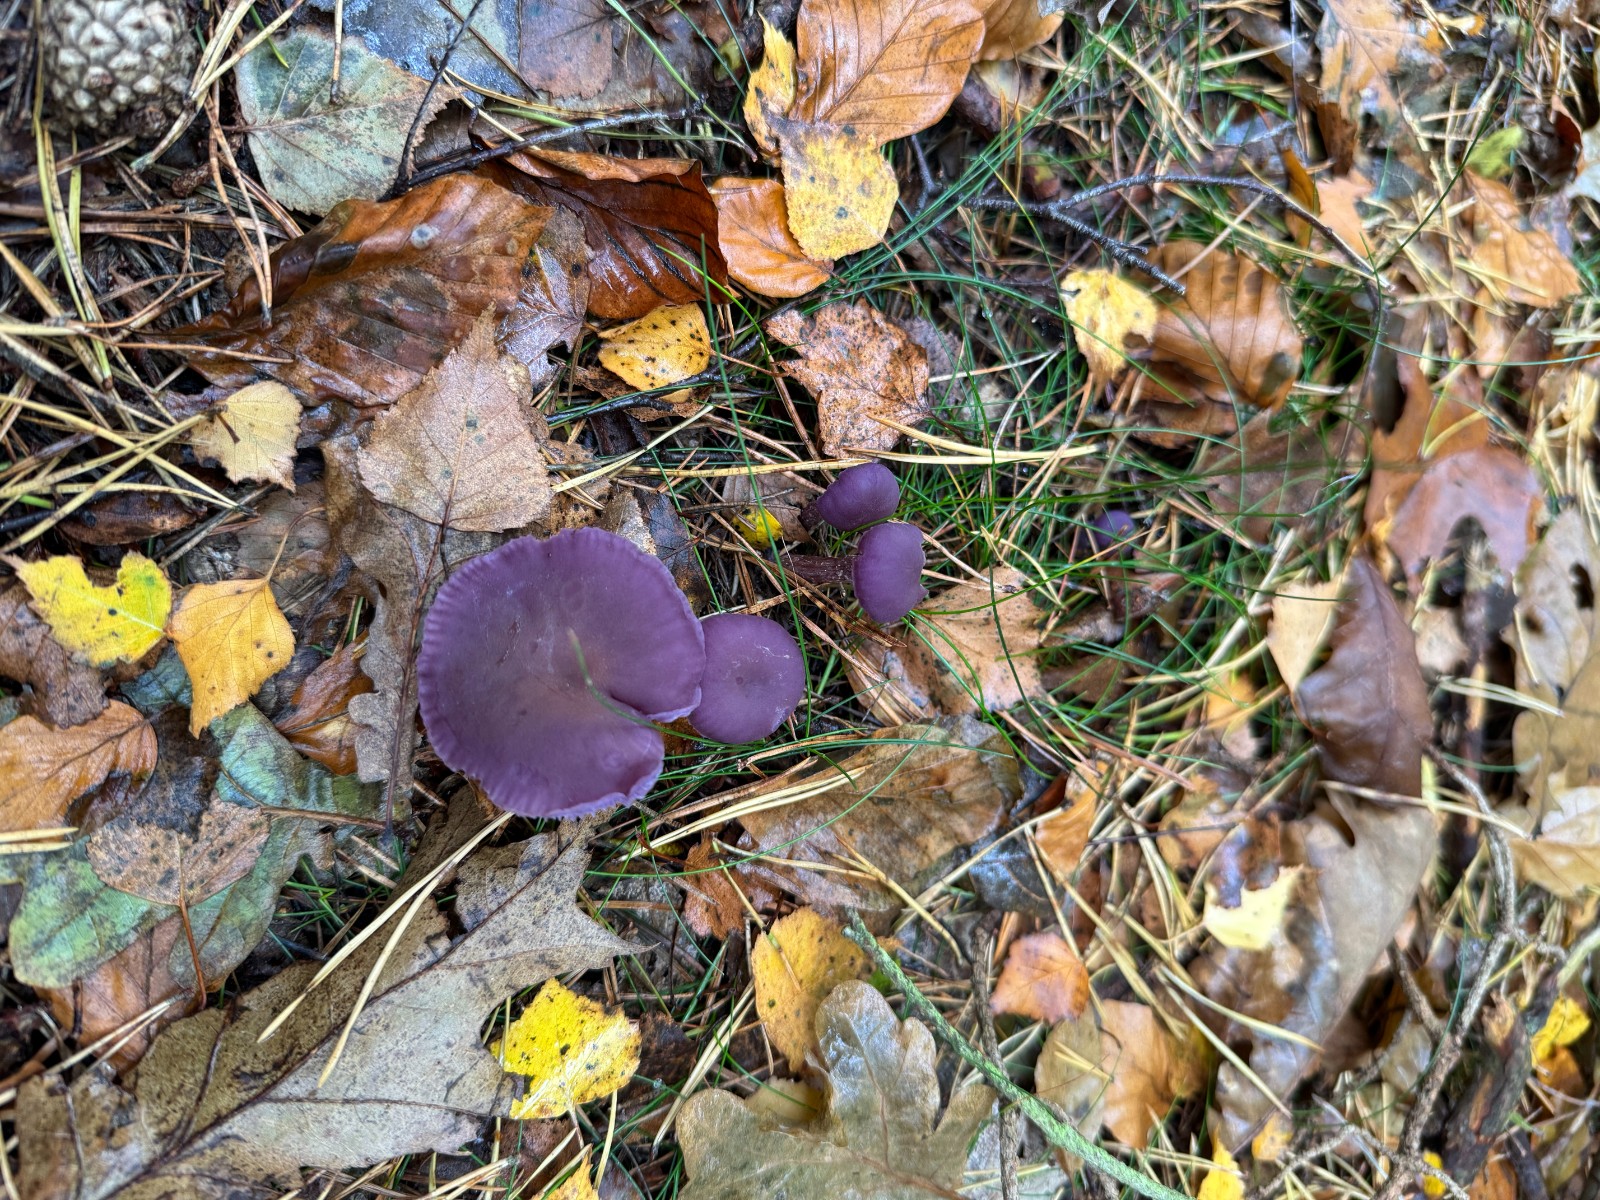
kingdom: Fungi
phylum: Basidiomycota
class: Agaricomycetes
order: Agaricales
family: Hydnangiaceae
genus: Laccaria
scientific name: Laccaria amethystina
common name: violet ametysthat
